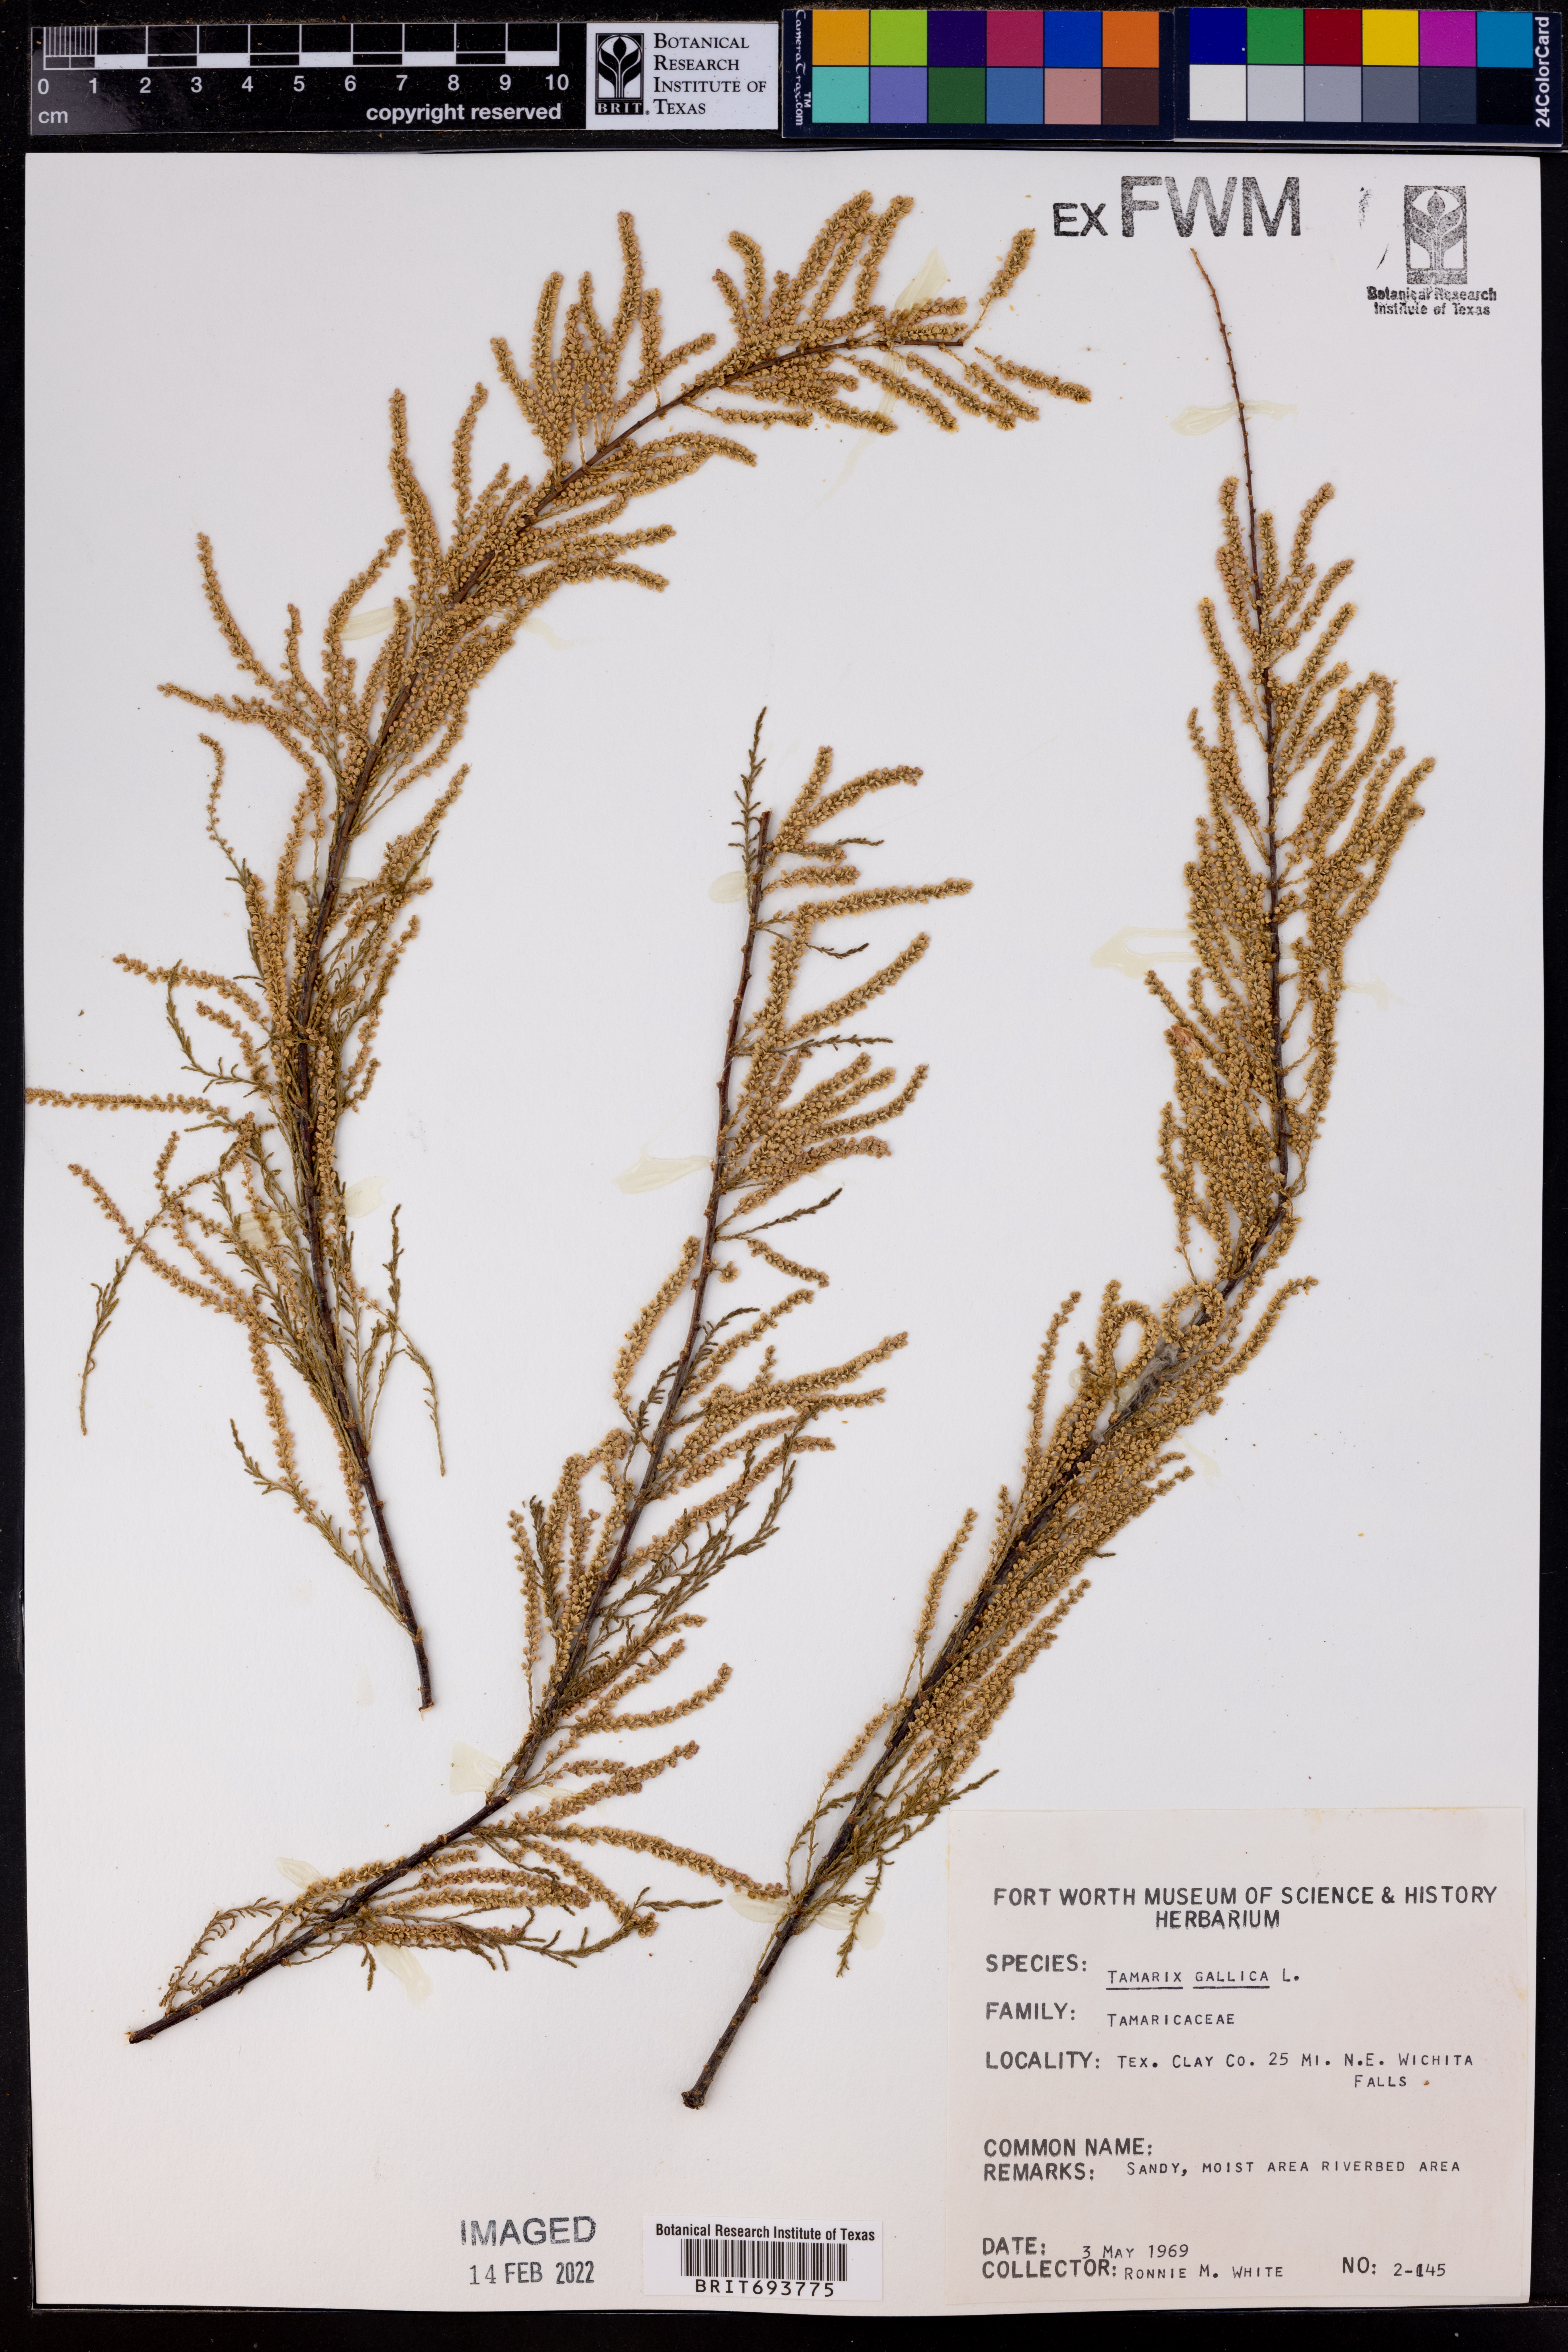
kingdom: Plantae
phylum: Tracheophyta
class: Magnoliopsida
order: Caryophyllales
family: Tamaricaceae
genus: Tamarix
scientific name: Tamarix gallica
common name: Tamarisk
